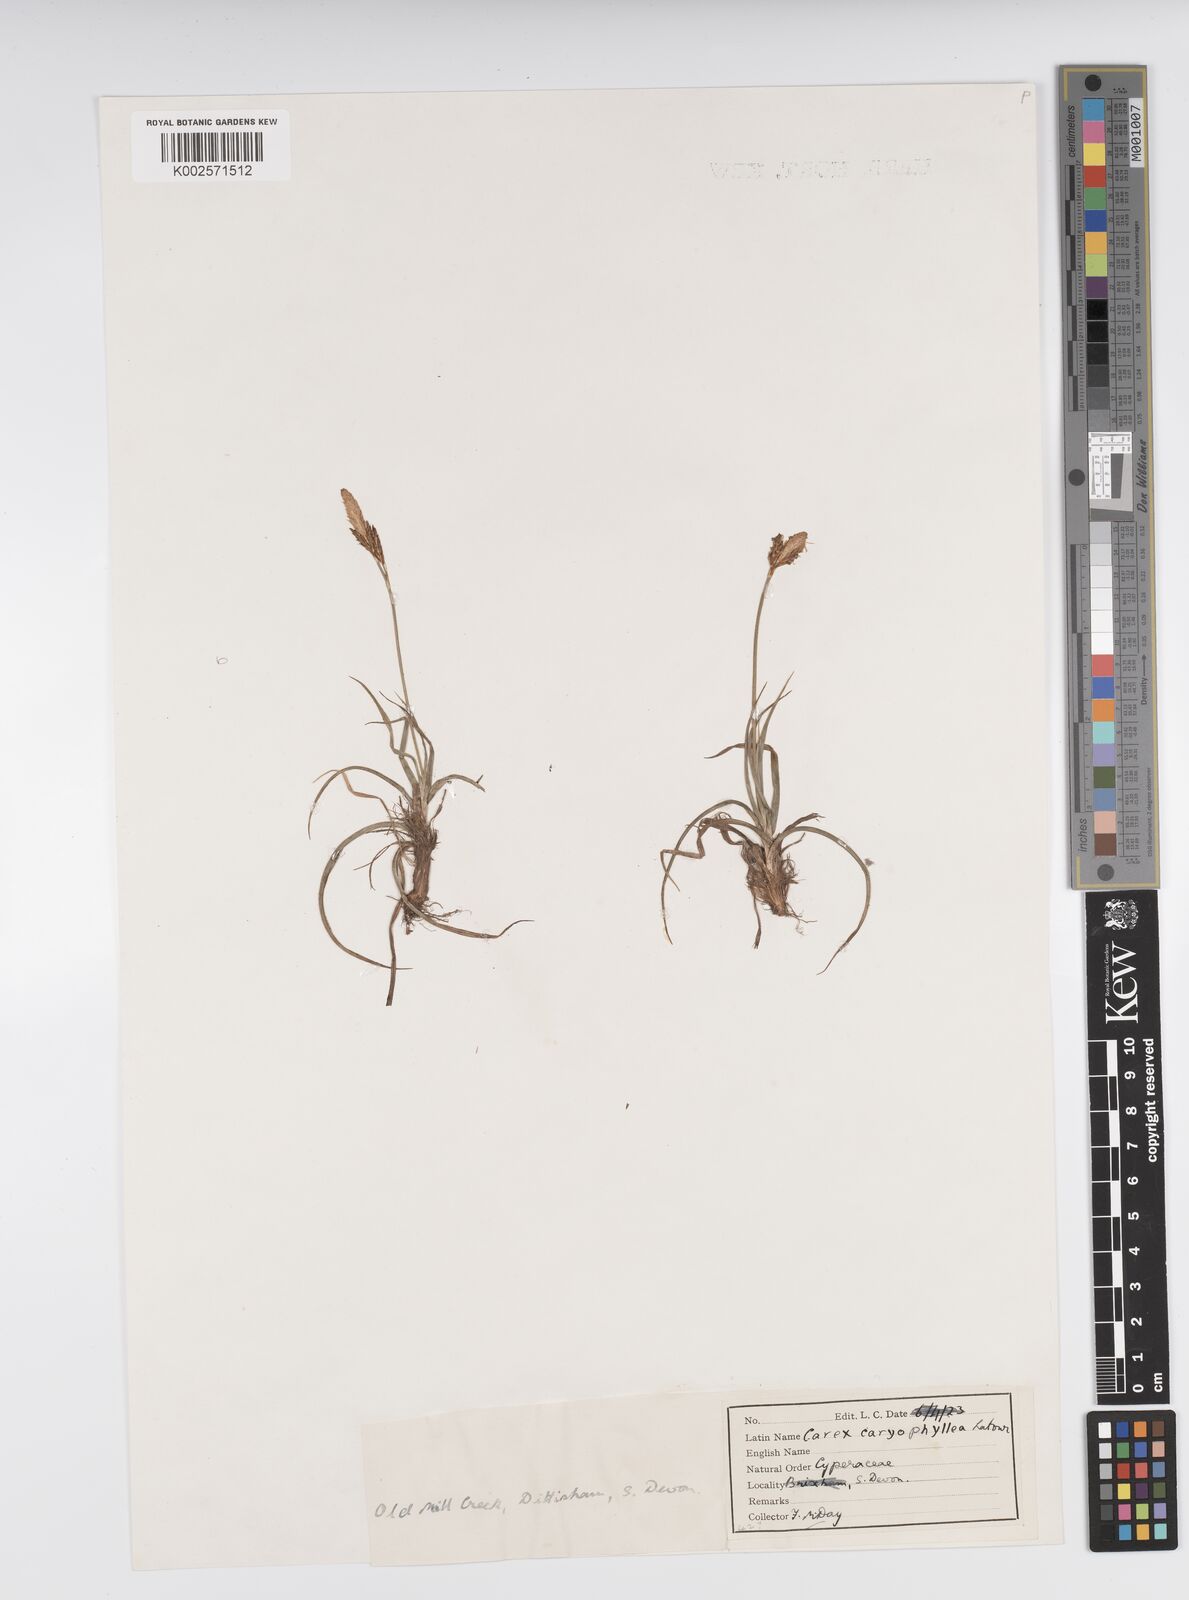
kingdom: Plantae
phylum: Tracheophyta
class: Liliopsida
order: Poales
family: Cyperaceae
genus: Carex
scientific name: Carex caryophyllea
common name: Spring sedge
